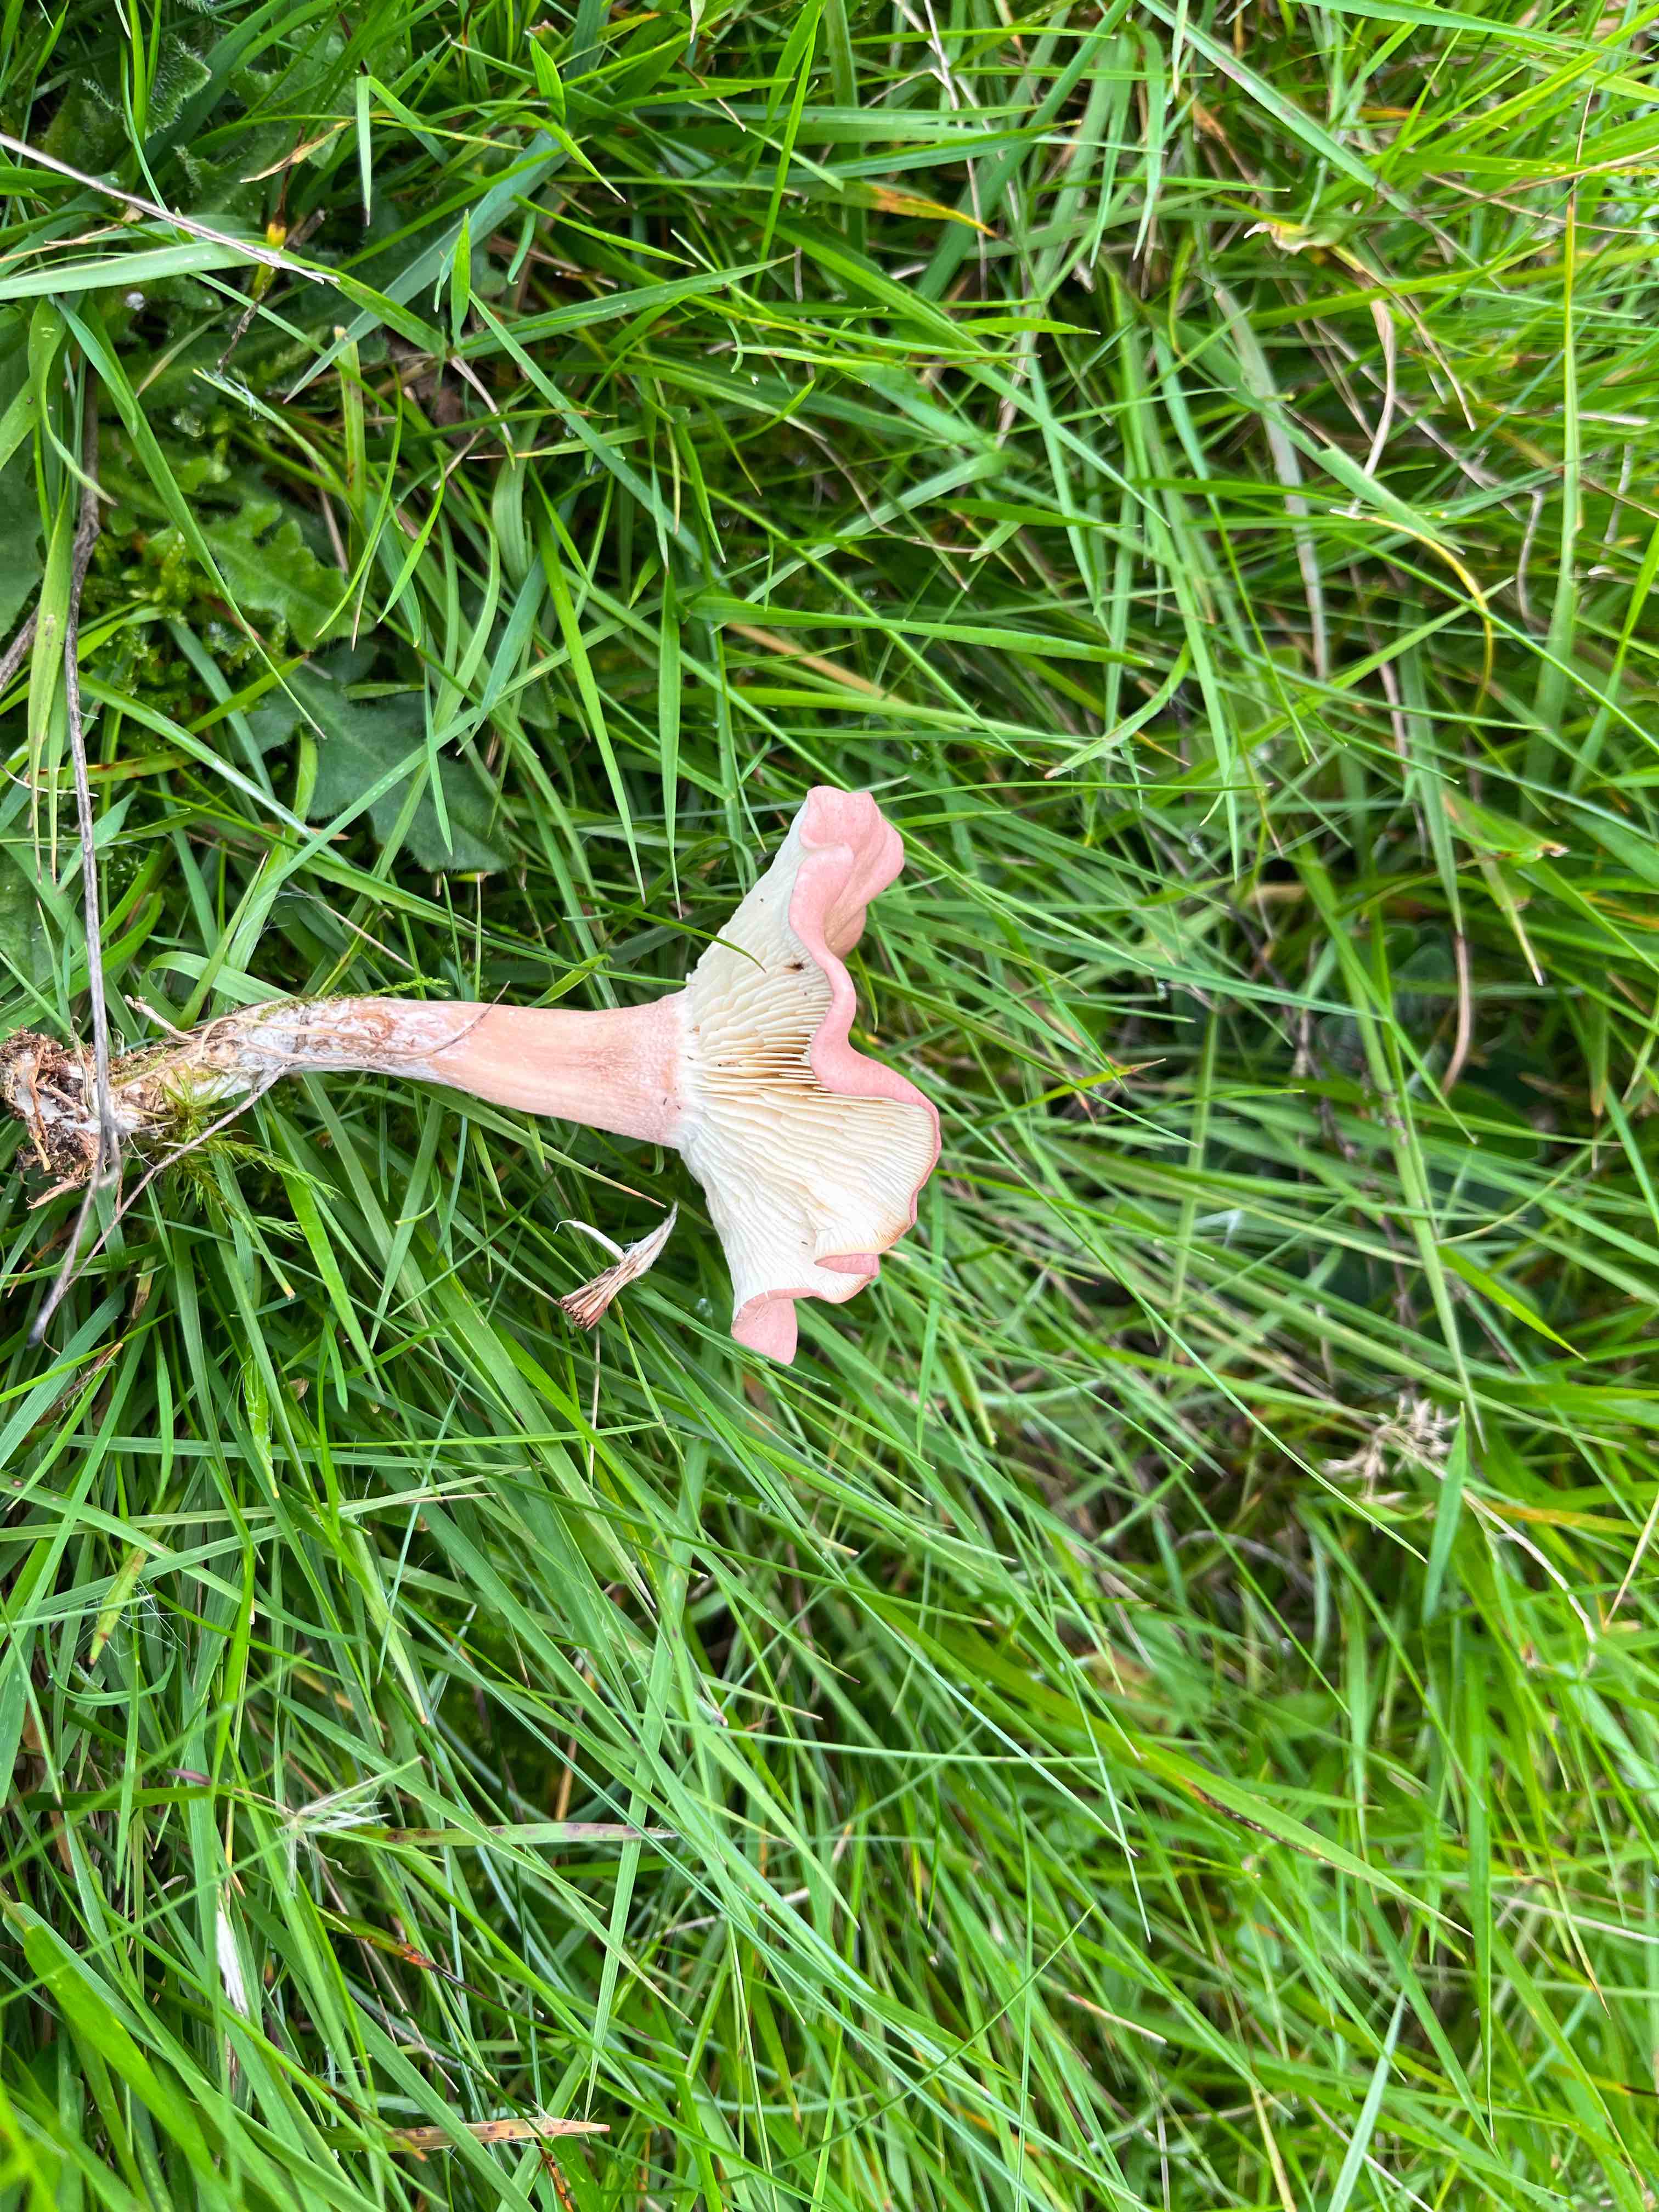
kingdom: Fungi
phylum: Basidiomycota
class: Agaricomycetes
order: Agaricales
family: Lyophyllaceae
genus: Calocybe
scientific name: Calocybe carnea
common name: rosa fagerhat
